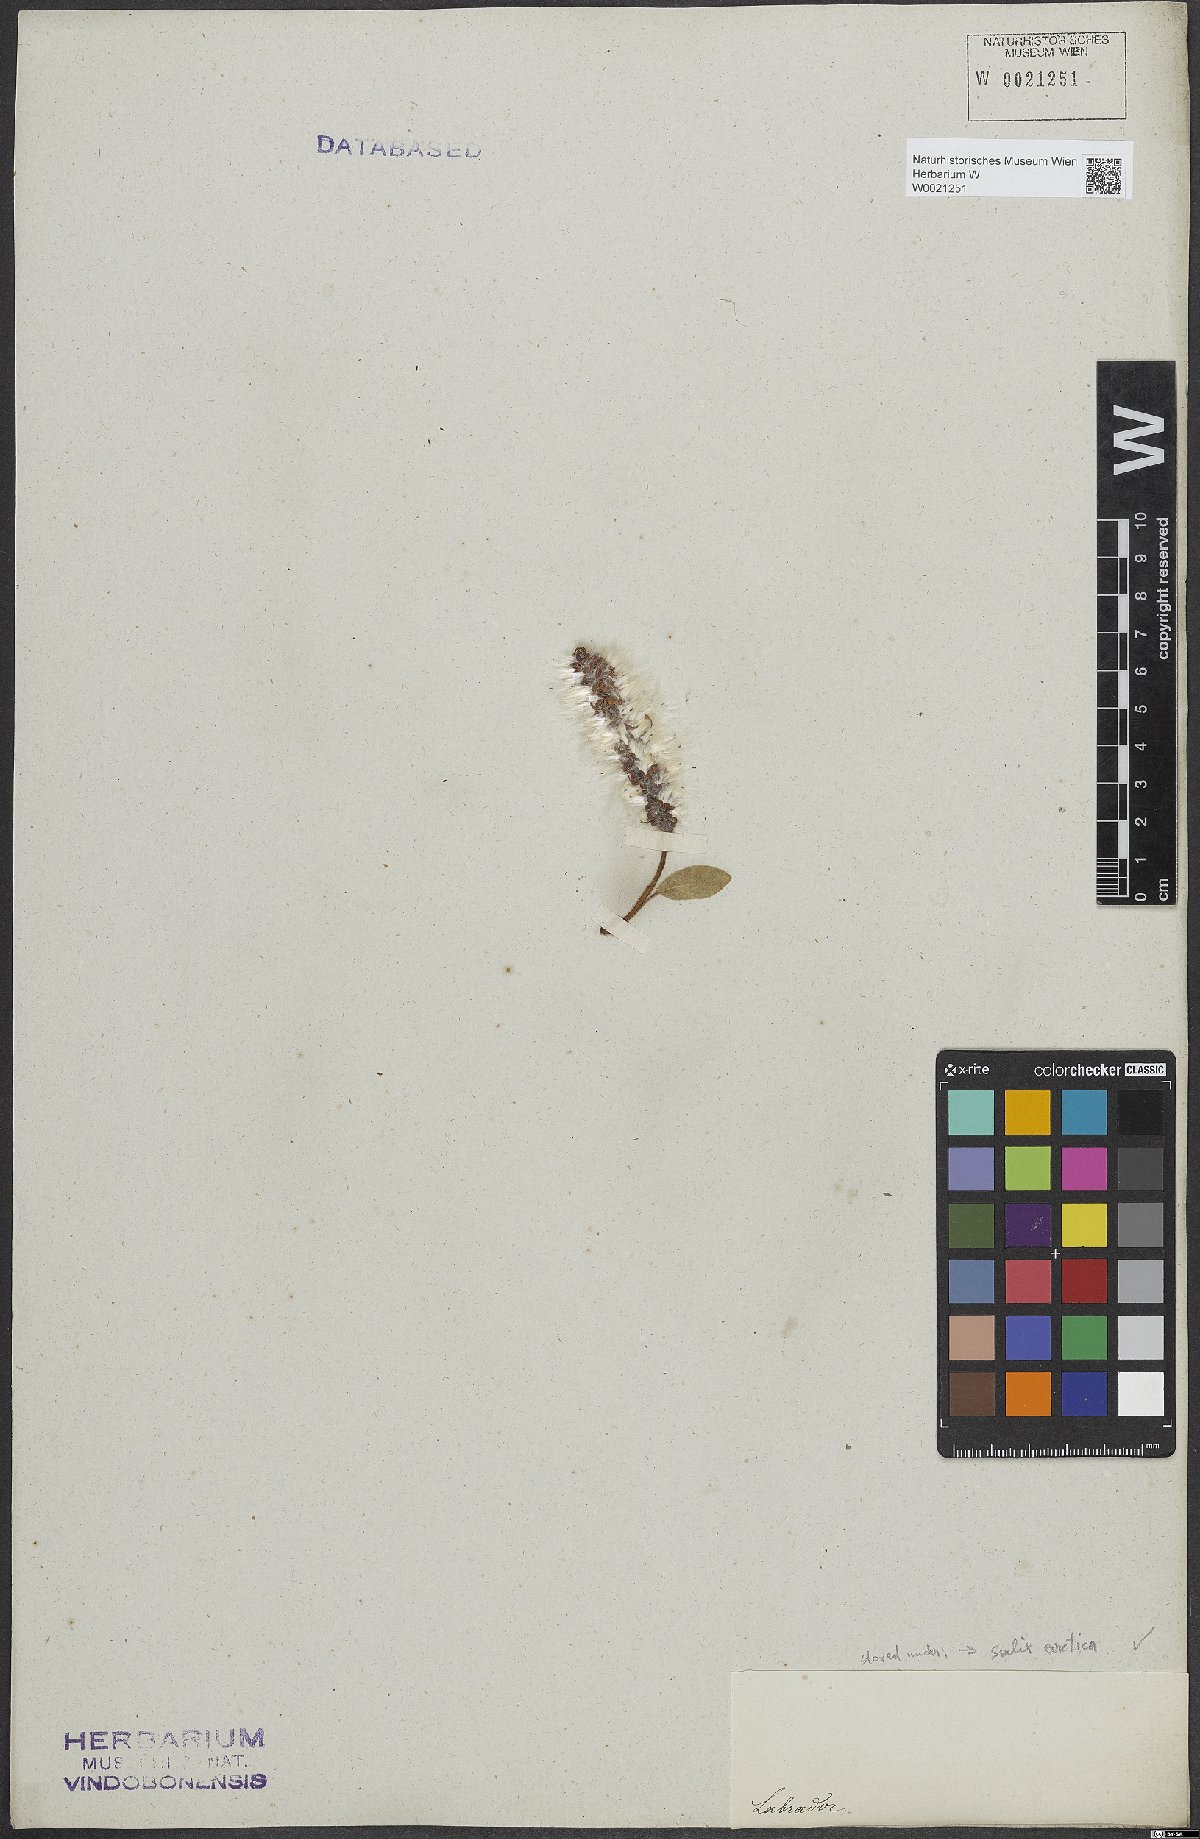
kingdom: Plantae
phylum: Tracheophyta
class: Magnoliopsida
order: Malpighiales
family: Salicaceae
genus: Salix
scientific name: Salix arctica
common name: Arctic willow
